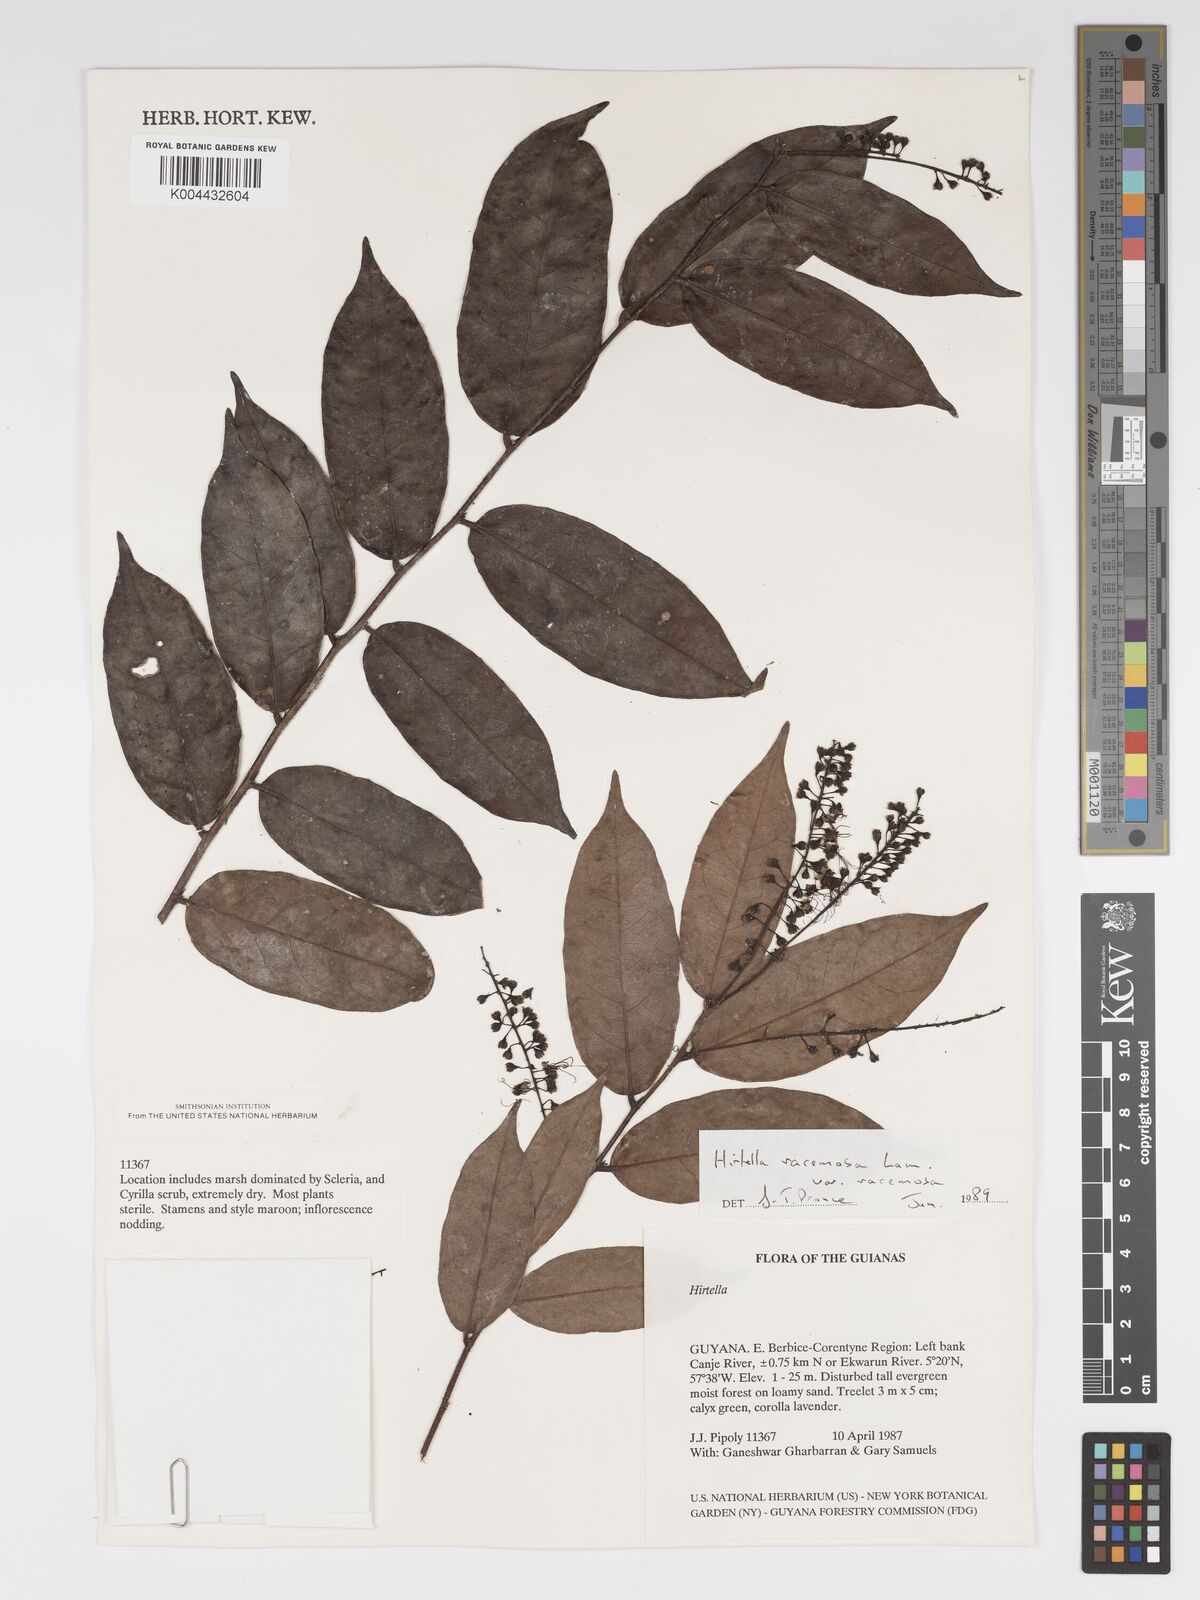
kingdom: Plantae
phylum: Tracheophyta
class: Magnoliopsida
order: Malpighiales
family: Chrysobalanaceae
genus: Hirtella
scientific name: Hirtella racemosa
